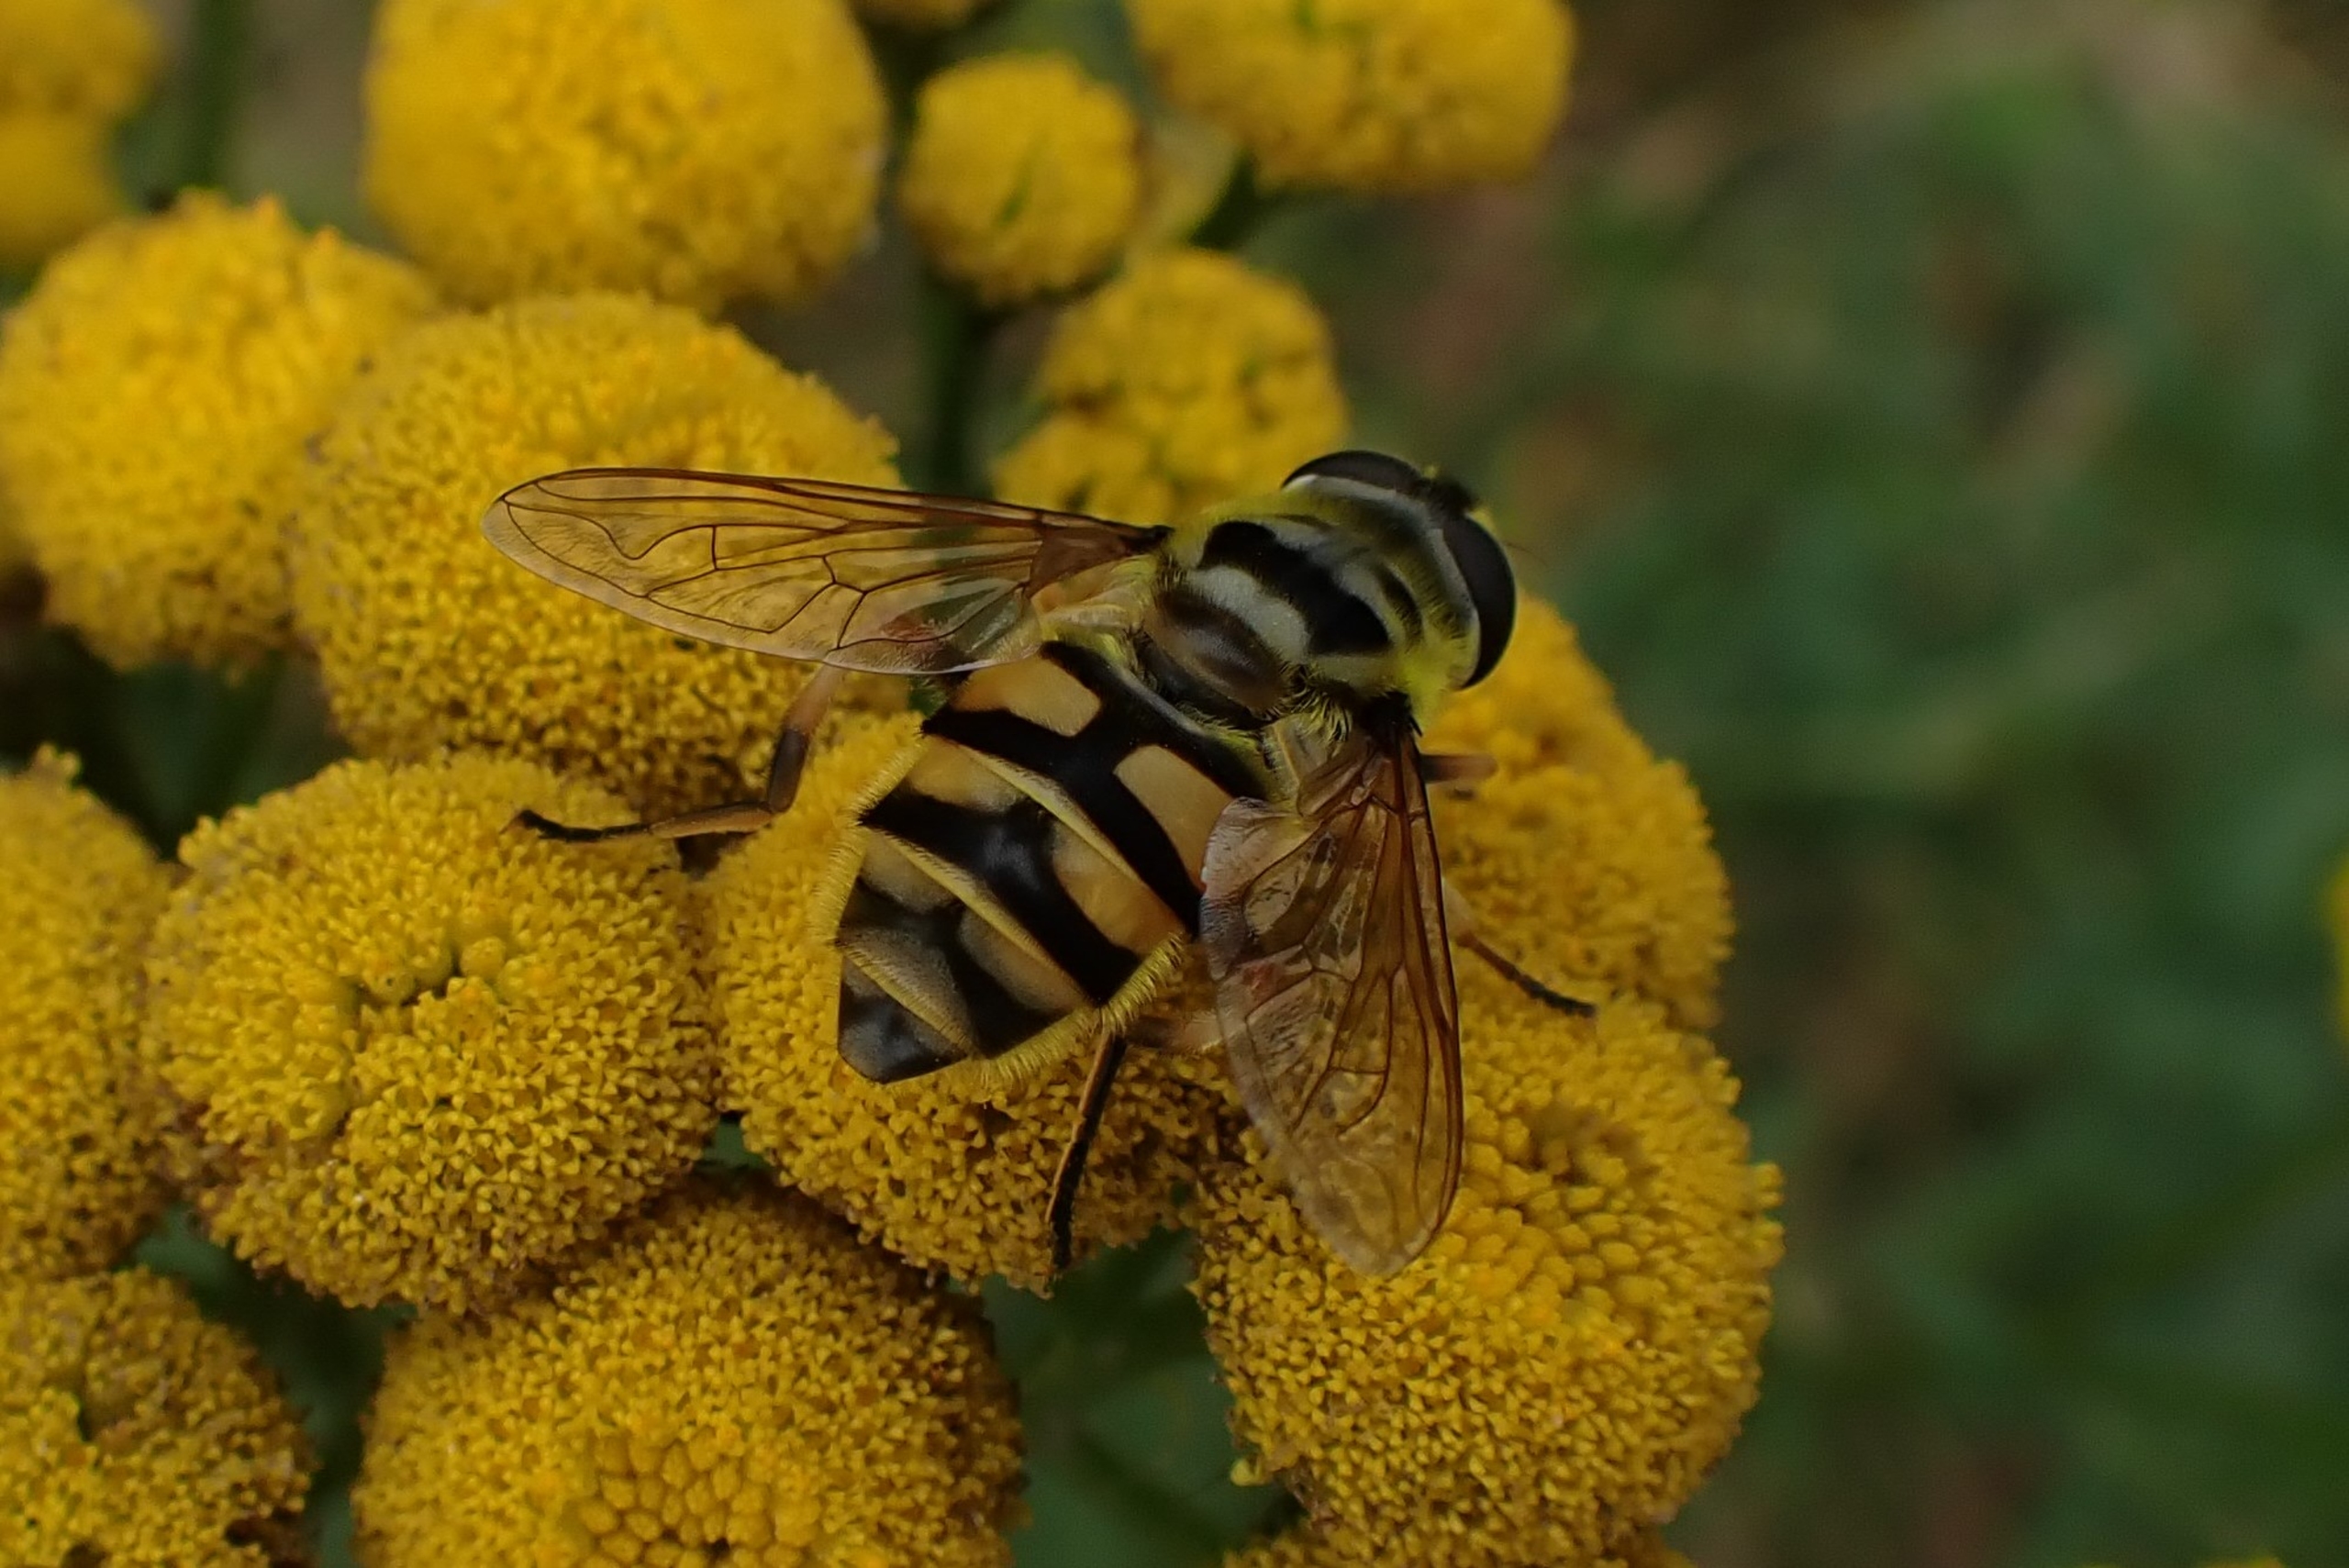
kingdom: Animalia
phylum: Arthropoda
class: Insecta
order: Diptera
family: Syrphidae
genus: Myathropa
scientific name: Myathropa florea
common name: Dødningehoved-svirreflue
